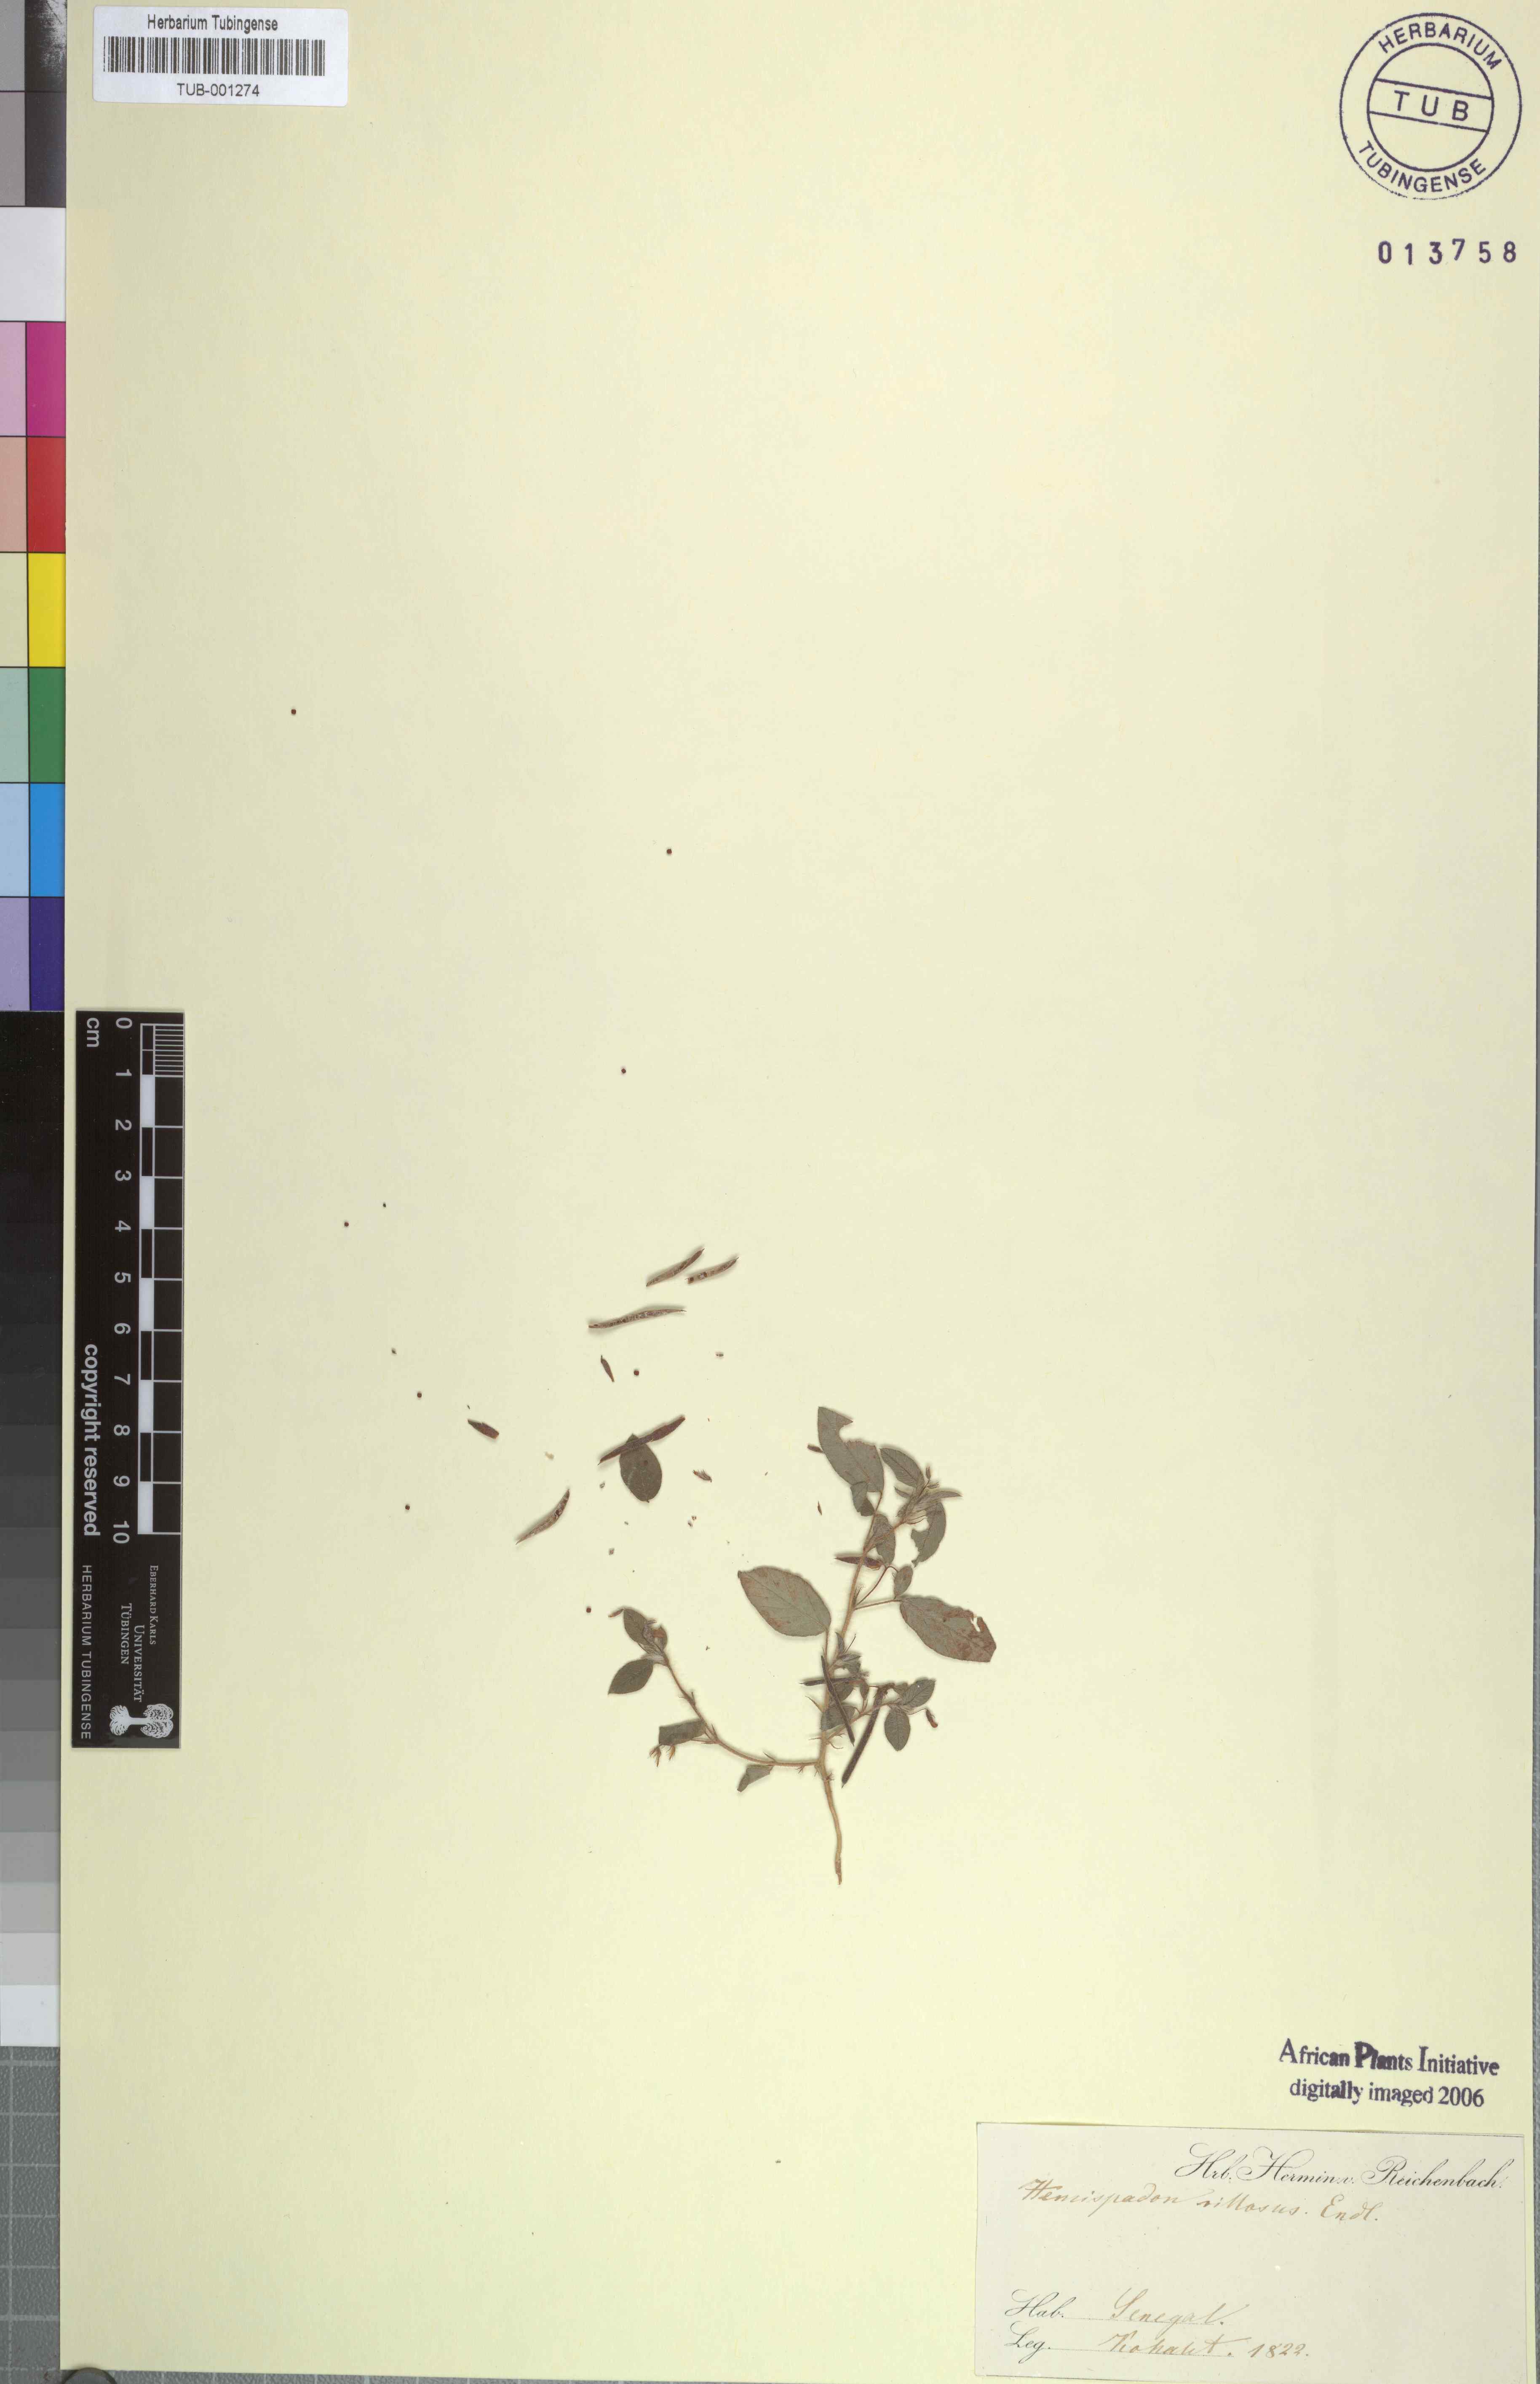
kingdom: Plantae
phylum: Tracheophyta
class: Magnoliopsida
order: Fabales
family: Fabaceae
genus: Indigofera
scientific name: Indigofera
